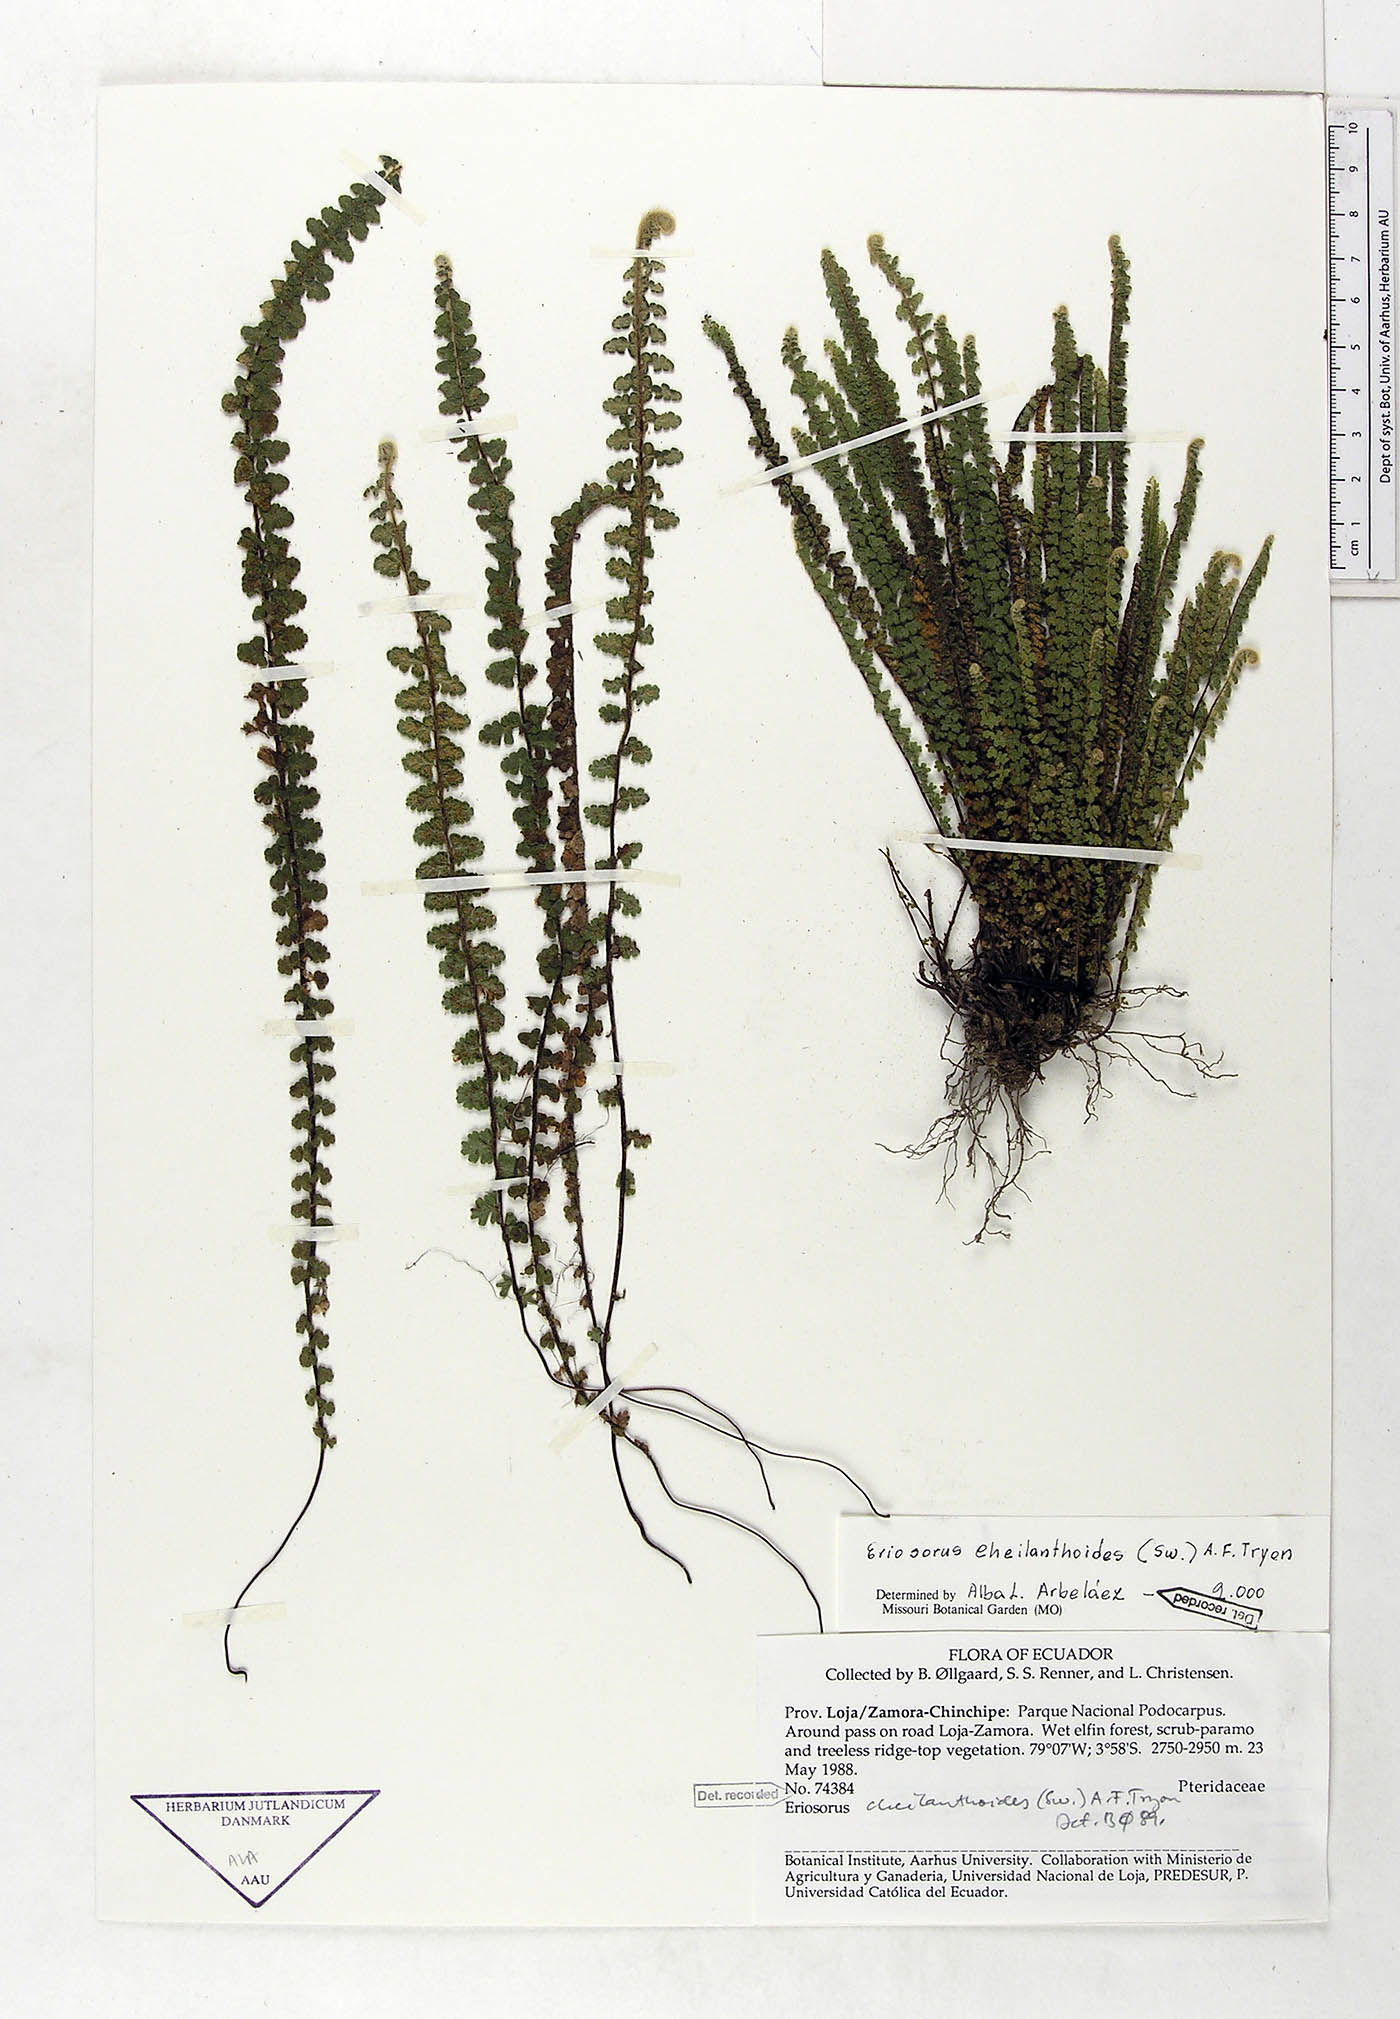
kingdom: Plantae
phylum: Tracheophyta
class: Polypodiopsida
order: Polypodiales
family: Pteridaceae
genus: Jamesonia
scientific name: Jamesonia cheilanthoides
